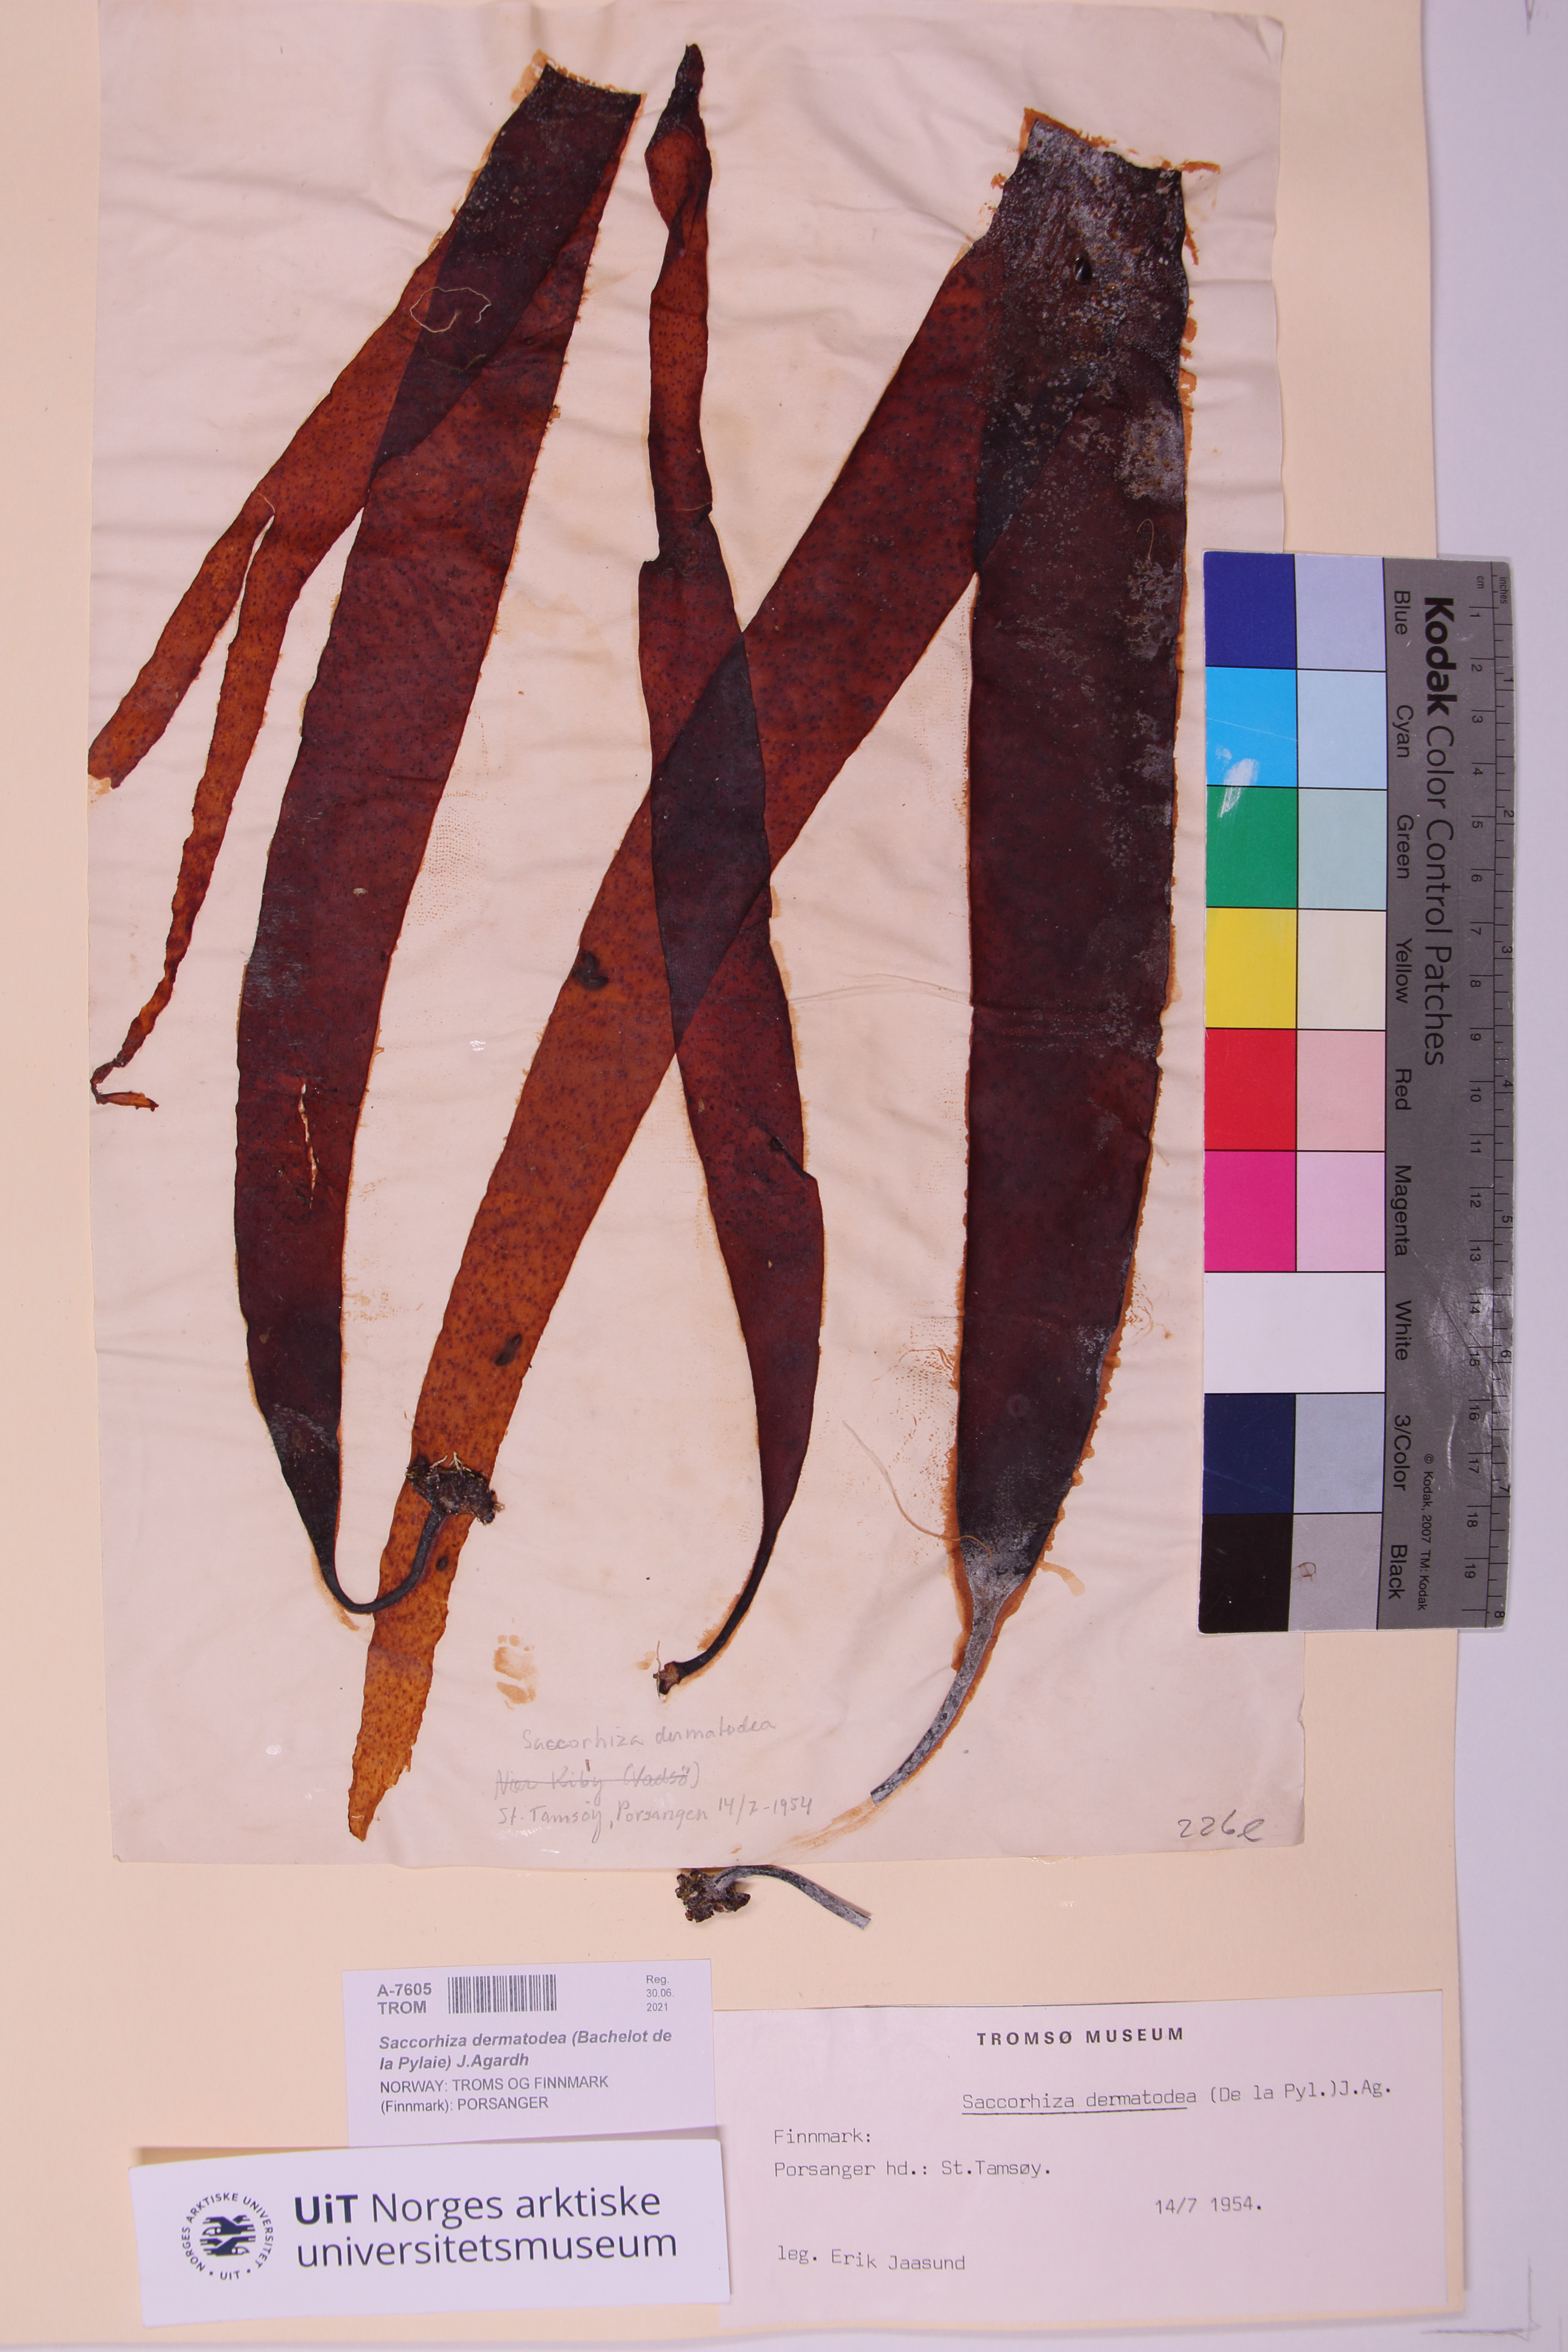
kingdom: Chromista
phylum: Ochrophyta
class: Phaeophyceae
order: Tilopteridales
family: Phyllariaceae
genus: Saccorhiza
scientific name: Saccorhiza dermatodea
